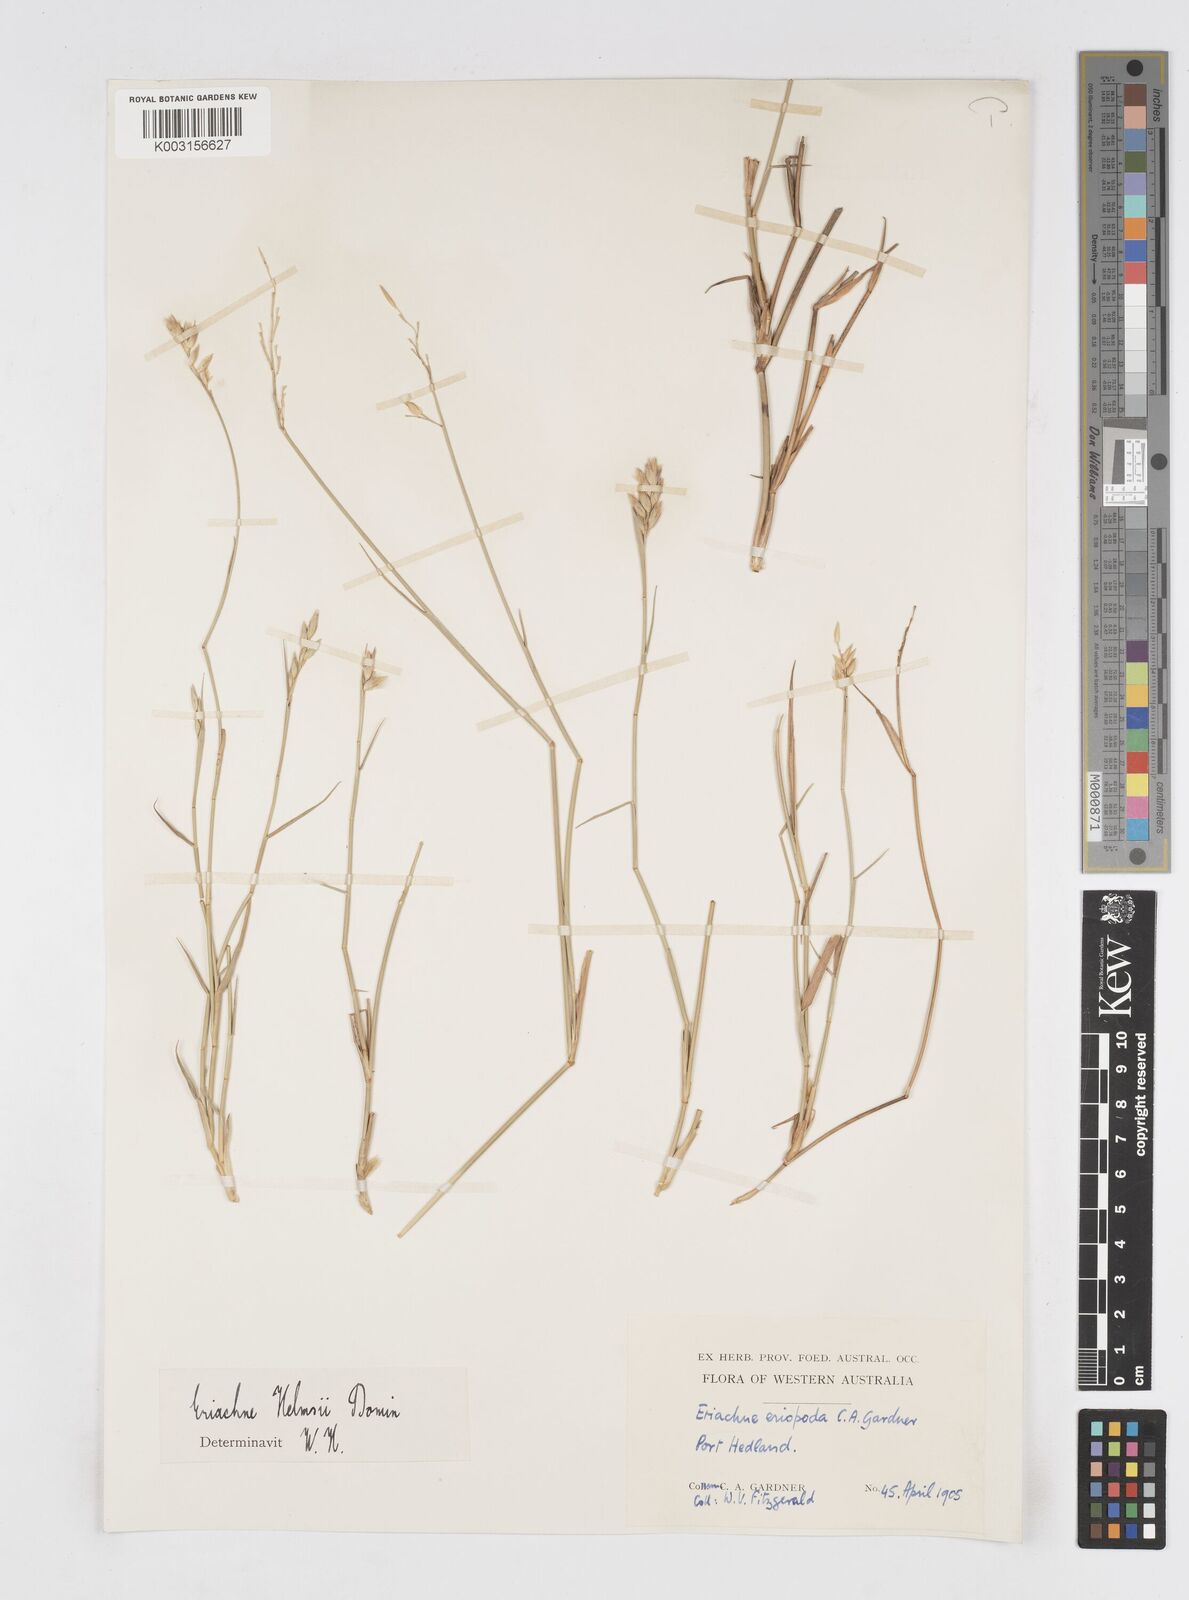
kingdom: Plantae
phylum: Tracheophyta
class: Liliopsida
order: Poales
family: Poaceae
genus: Eriachne
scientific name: Eriachne helmsii
